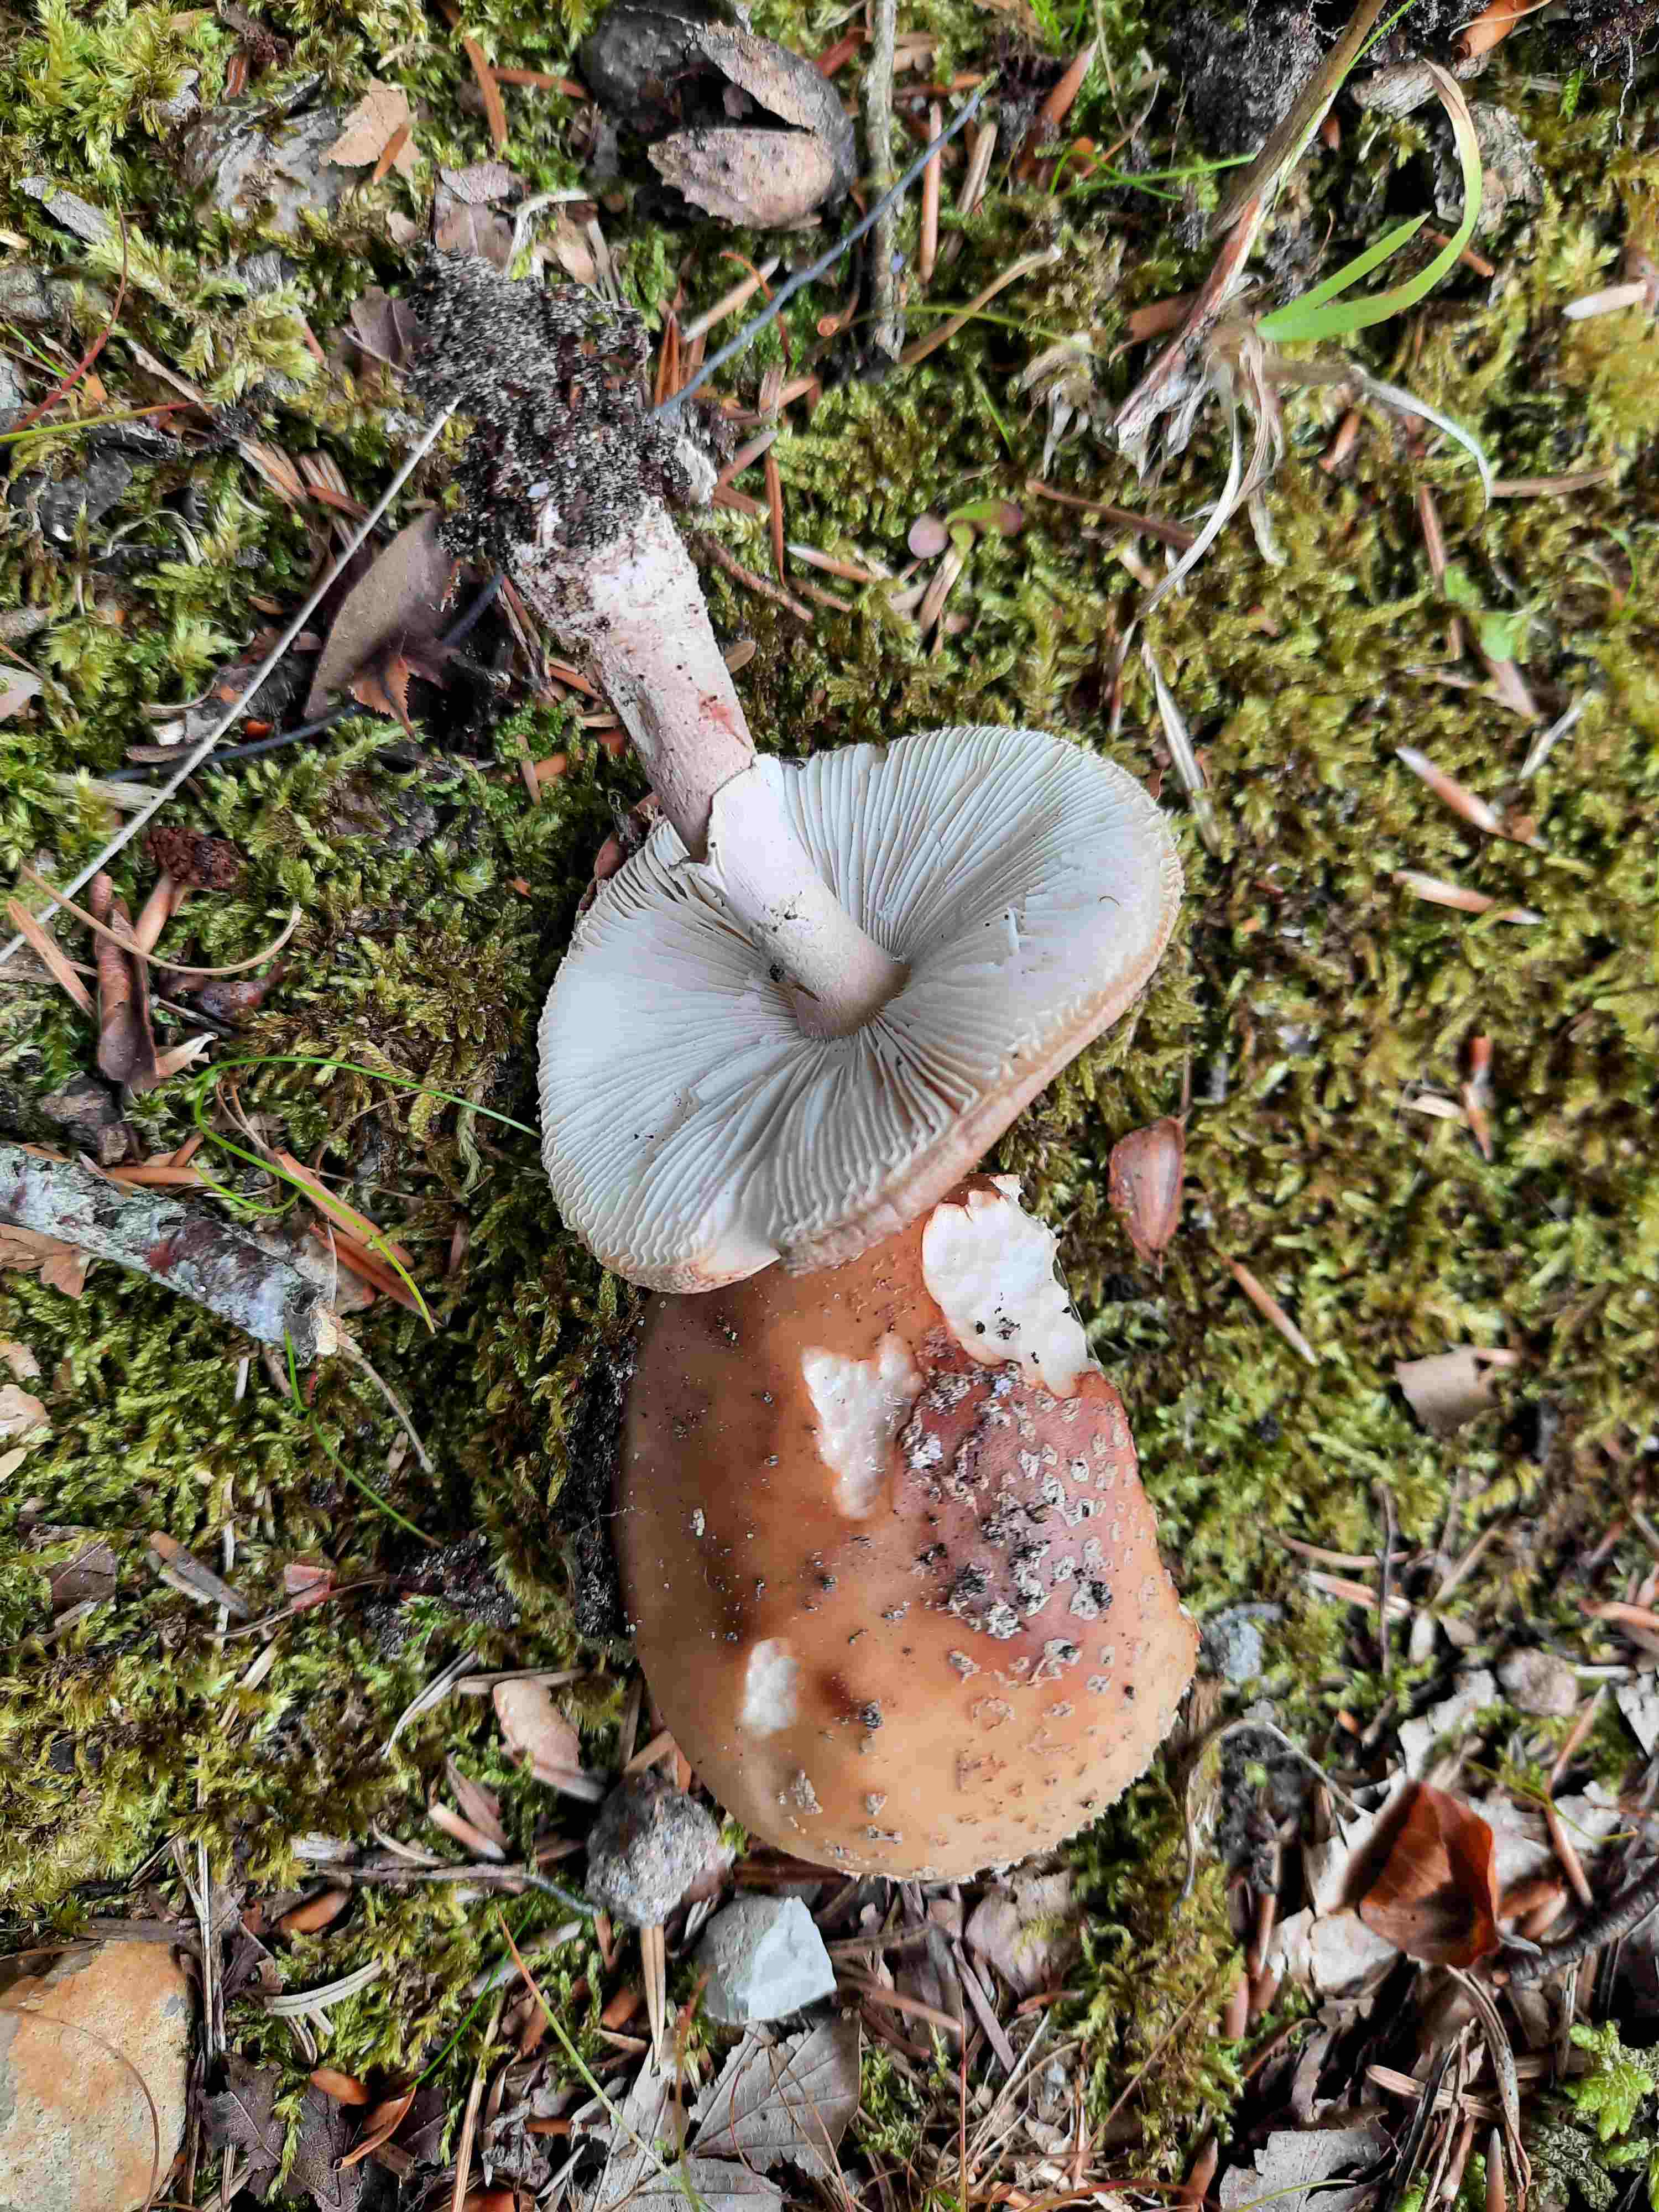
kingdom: Fungi
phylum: Basidiomycota
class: Agaricomycetes
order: Agaricales
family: Amanitaceae
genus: Amanita
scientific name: Amanita rubescens
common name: rødmende fluesvamp
